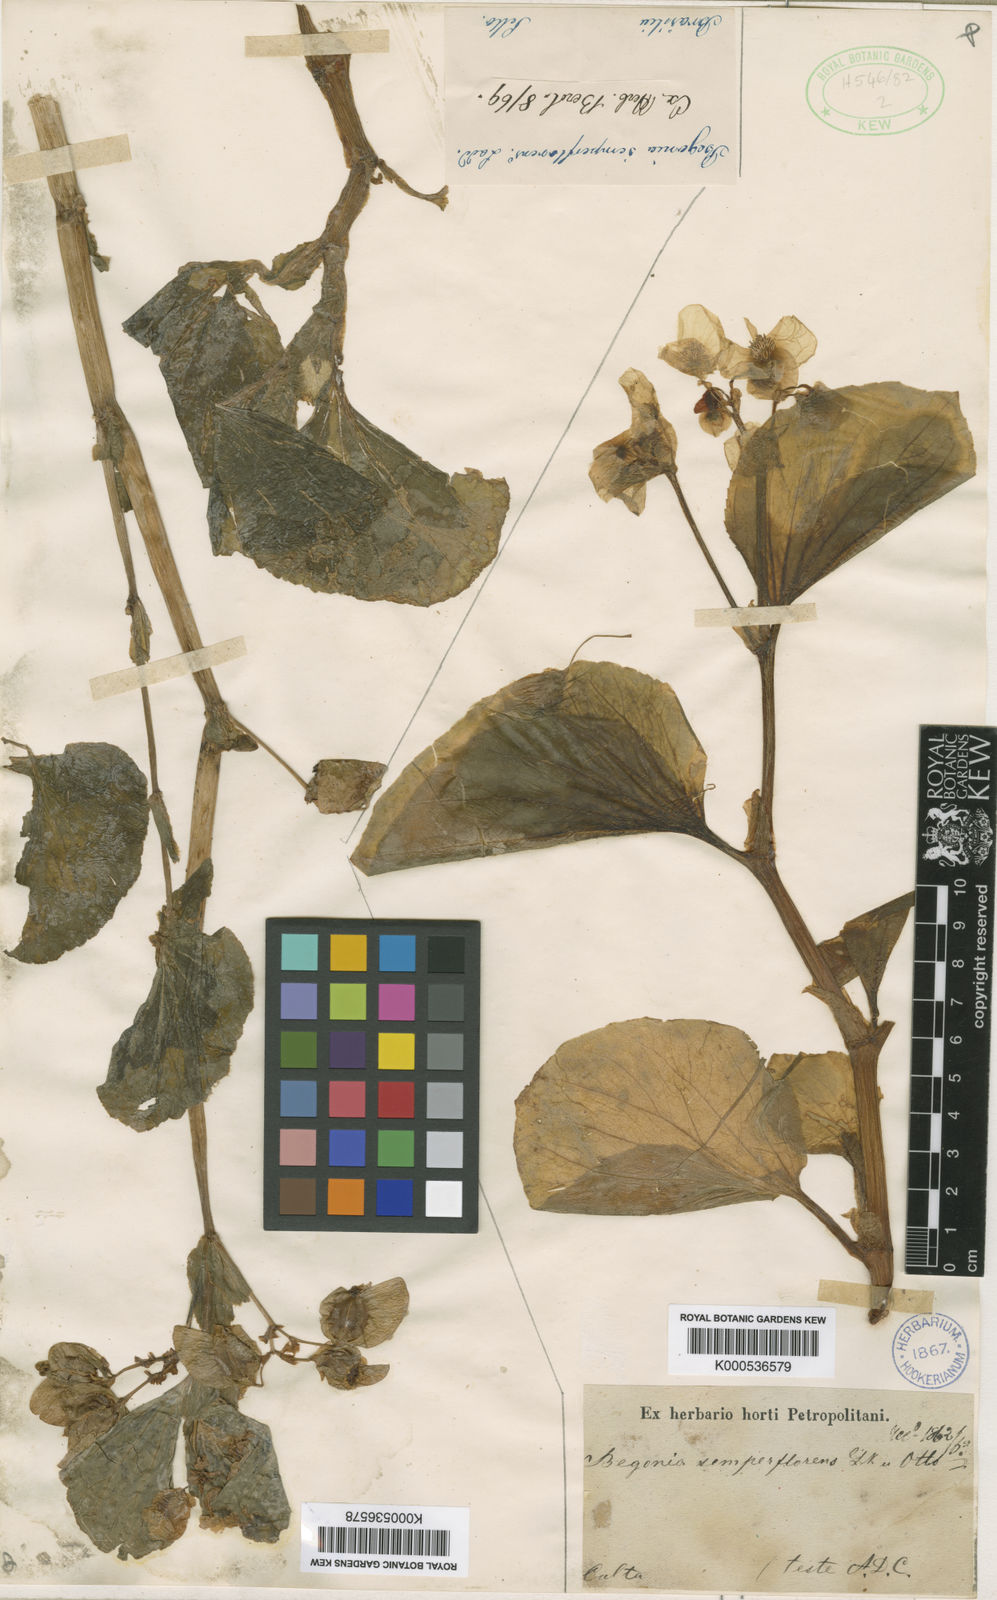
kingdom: Plantae
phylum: Tracheophyta
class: Magnoliopsida
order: Cucurbitales
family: Begoniaceae
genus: Begonia
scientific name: Begonia semperflorens
